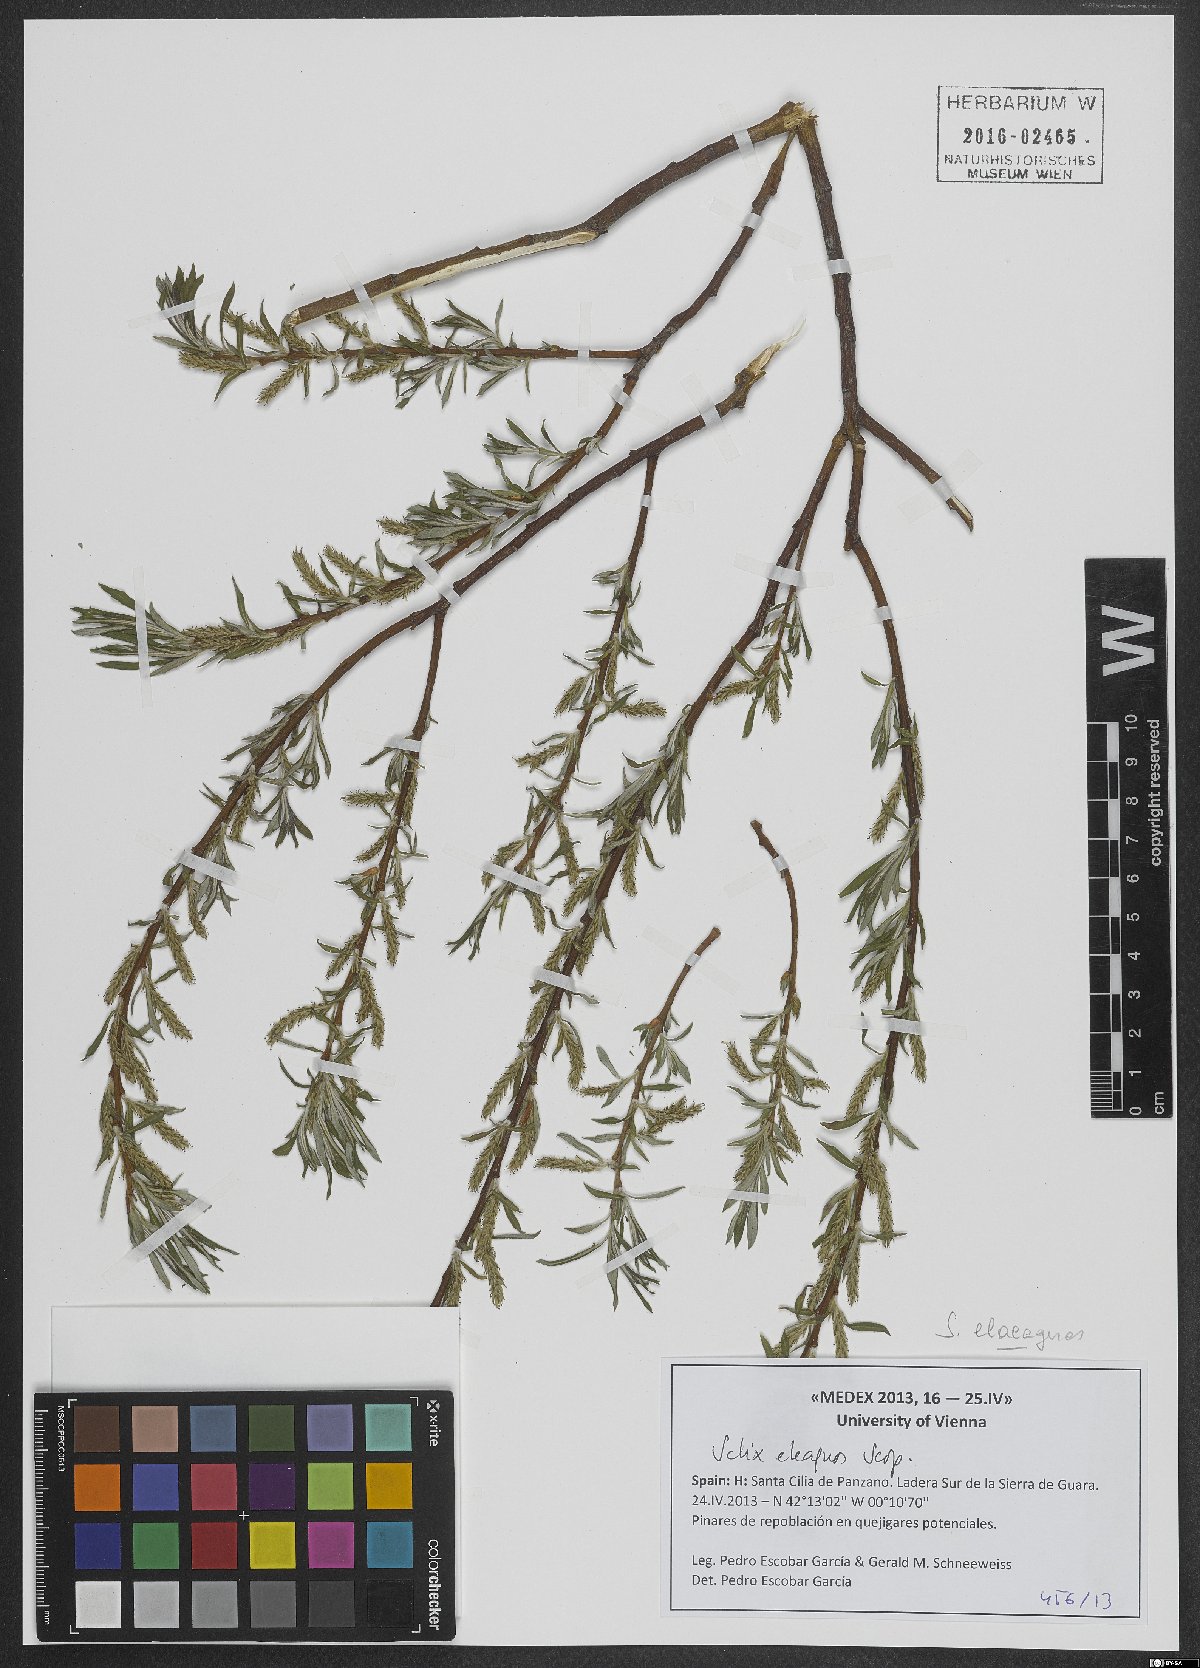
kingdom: Plantae
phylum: Tracheophyta
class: Magnoliopsida
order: Malpighiales
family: Salicaceae
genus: Salix
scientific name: Salix eleagnos
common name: Elaeagnus willow
